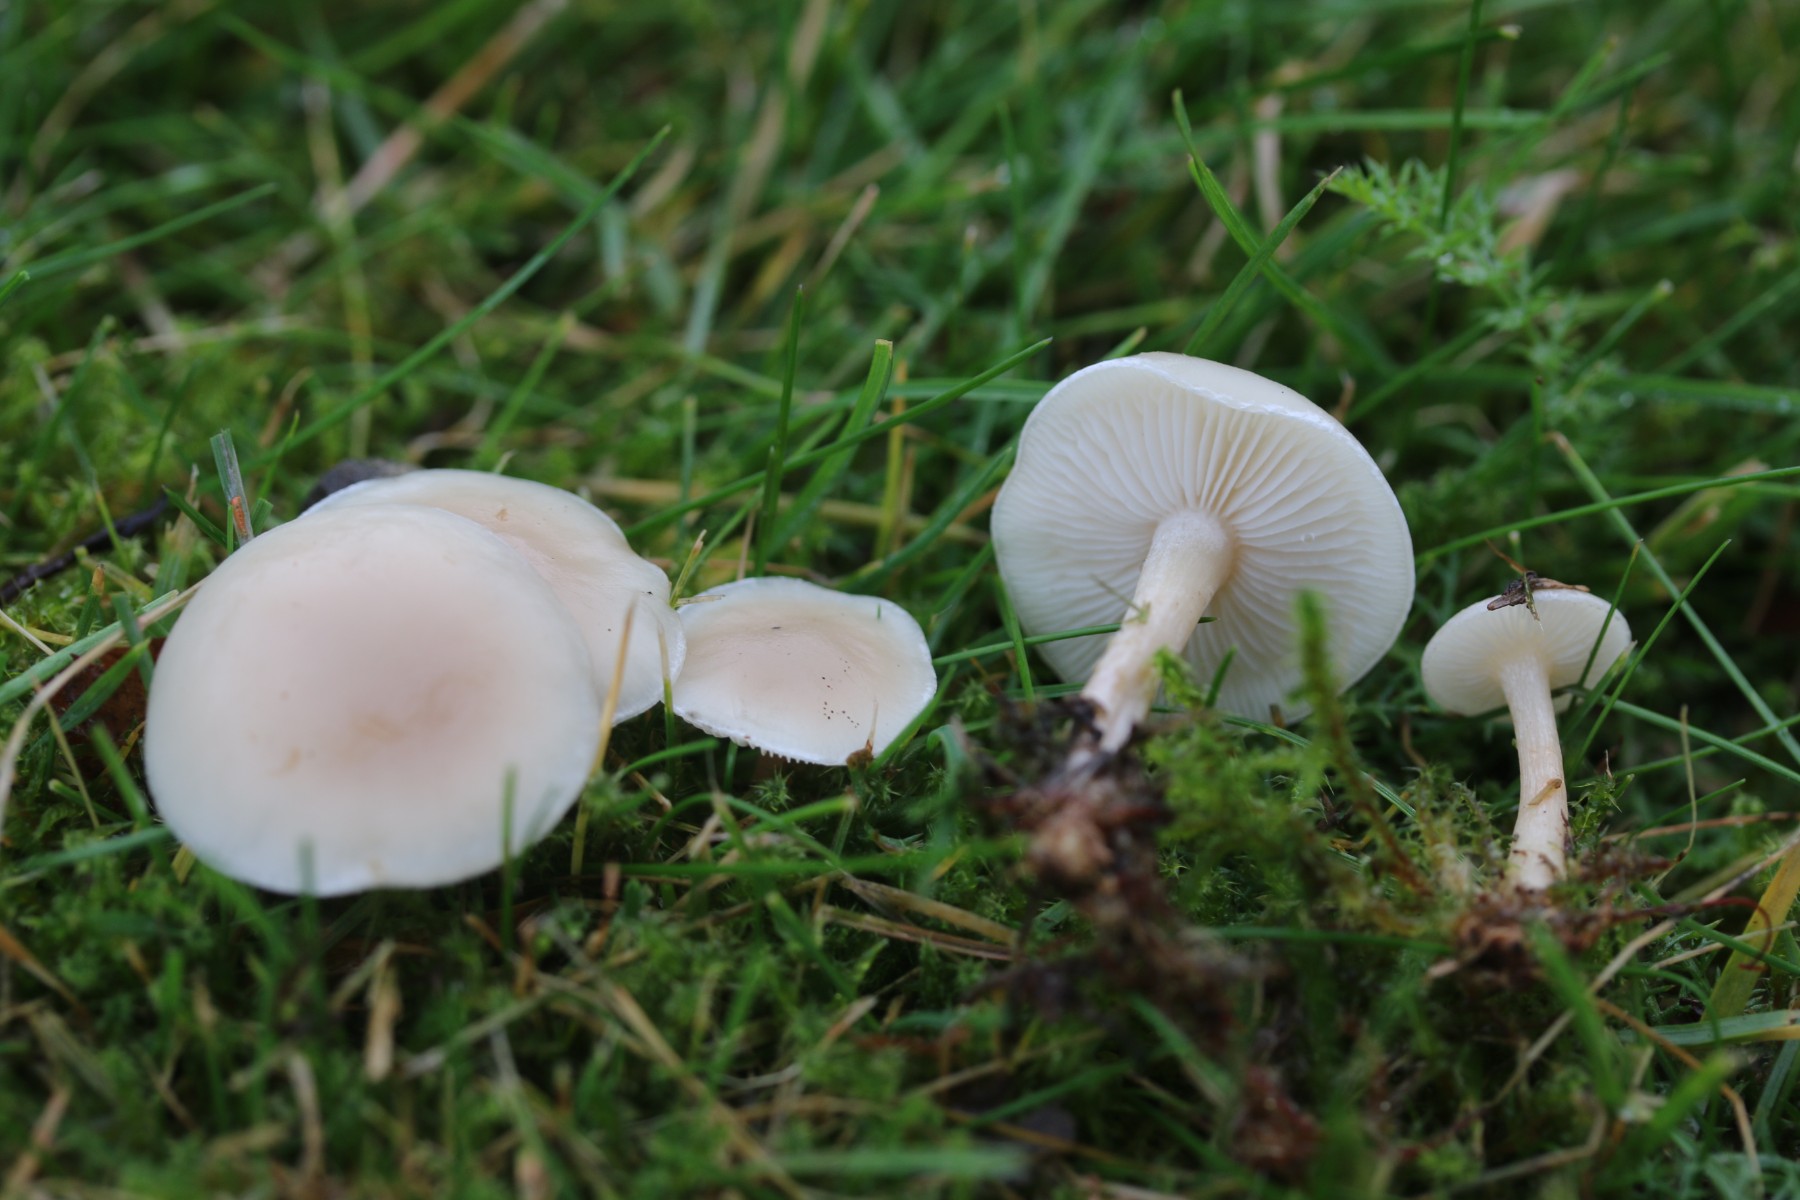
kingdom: Fungi
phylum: Basidiomycota
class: Agaricomycetes
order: Agaricales
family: Tricholomataceae
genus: Clitocybe
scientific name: Clitocybe agrestis
